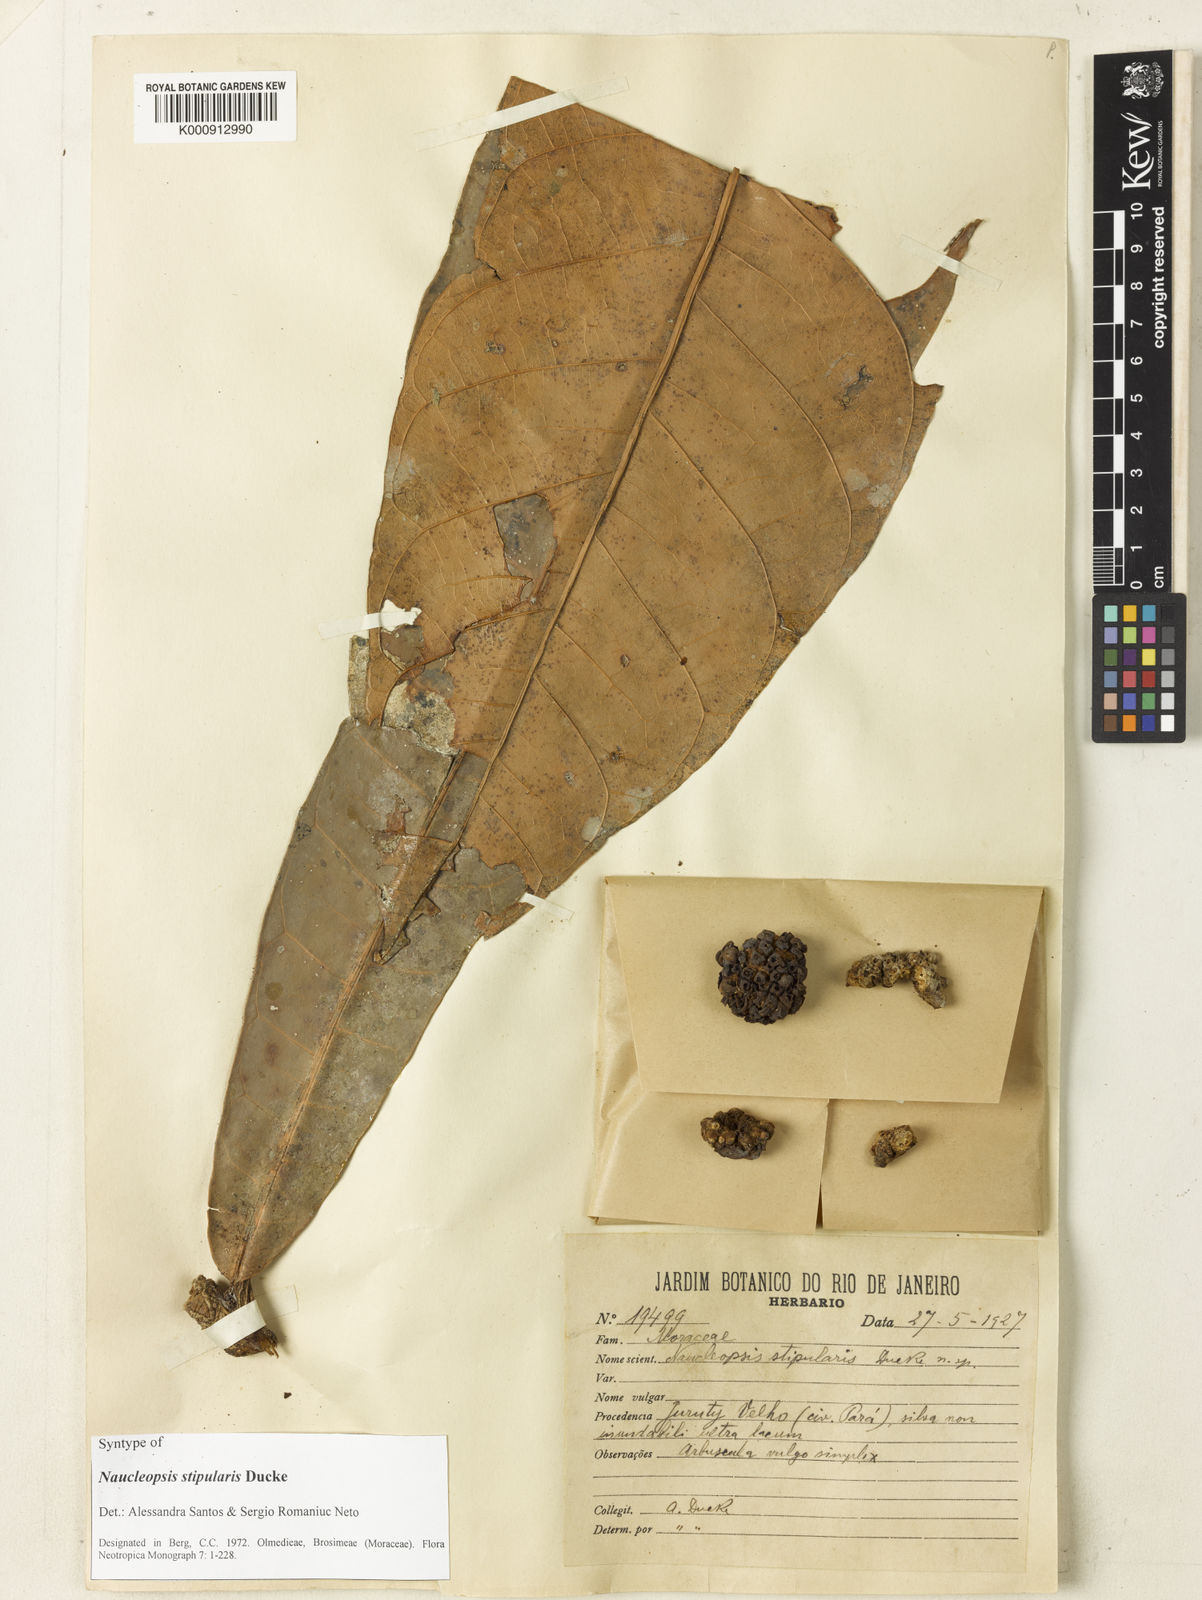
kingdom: Plantae
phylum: Tracheophyta
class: Magnoliopsida
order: Rosales
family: Moraceae
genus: Naucleopsis
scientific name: Naucleopsis stipularis
